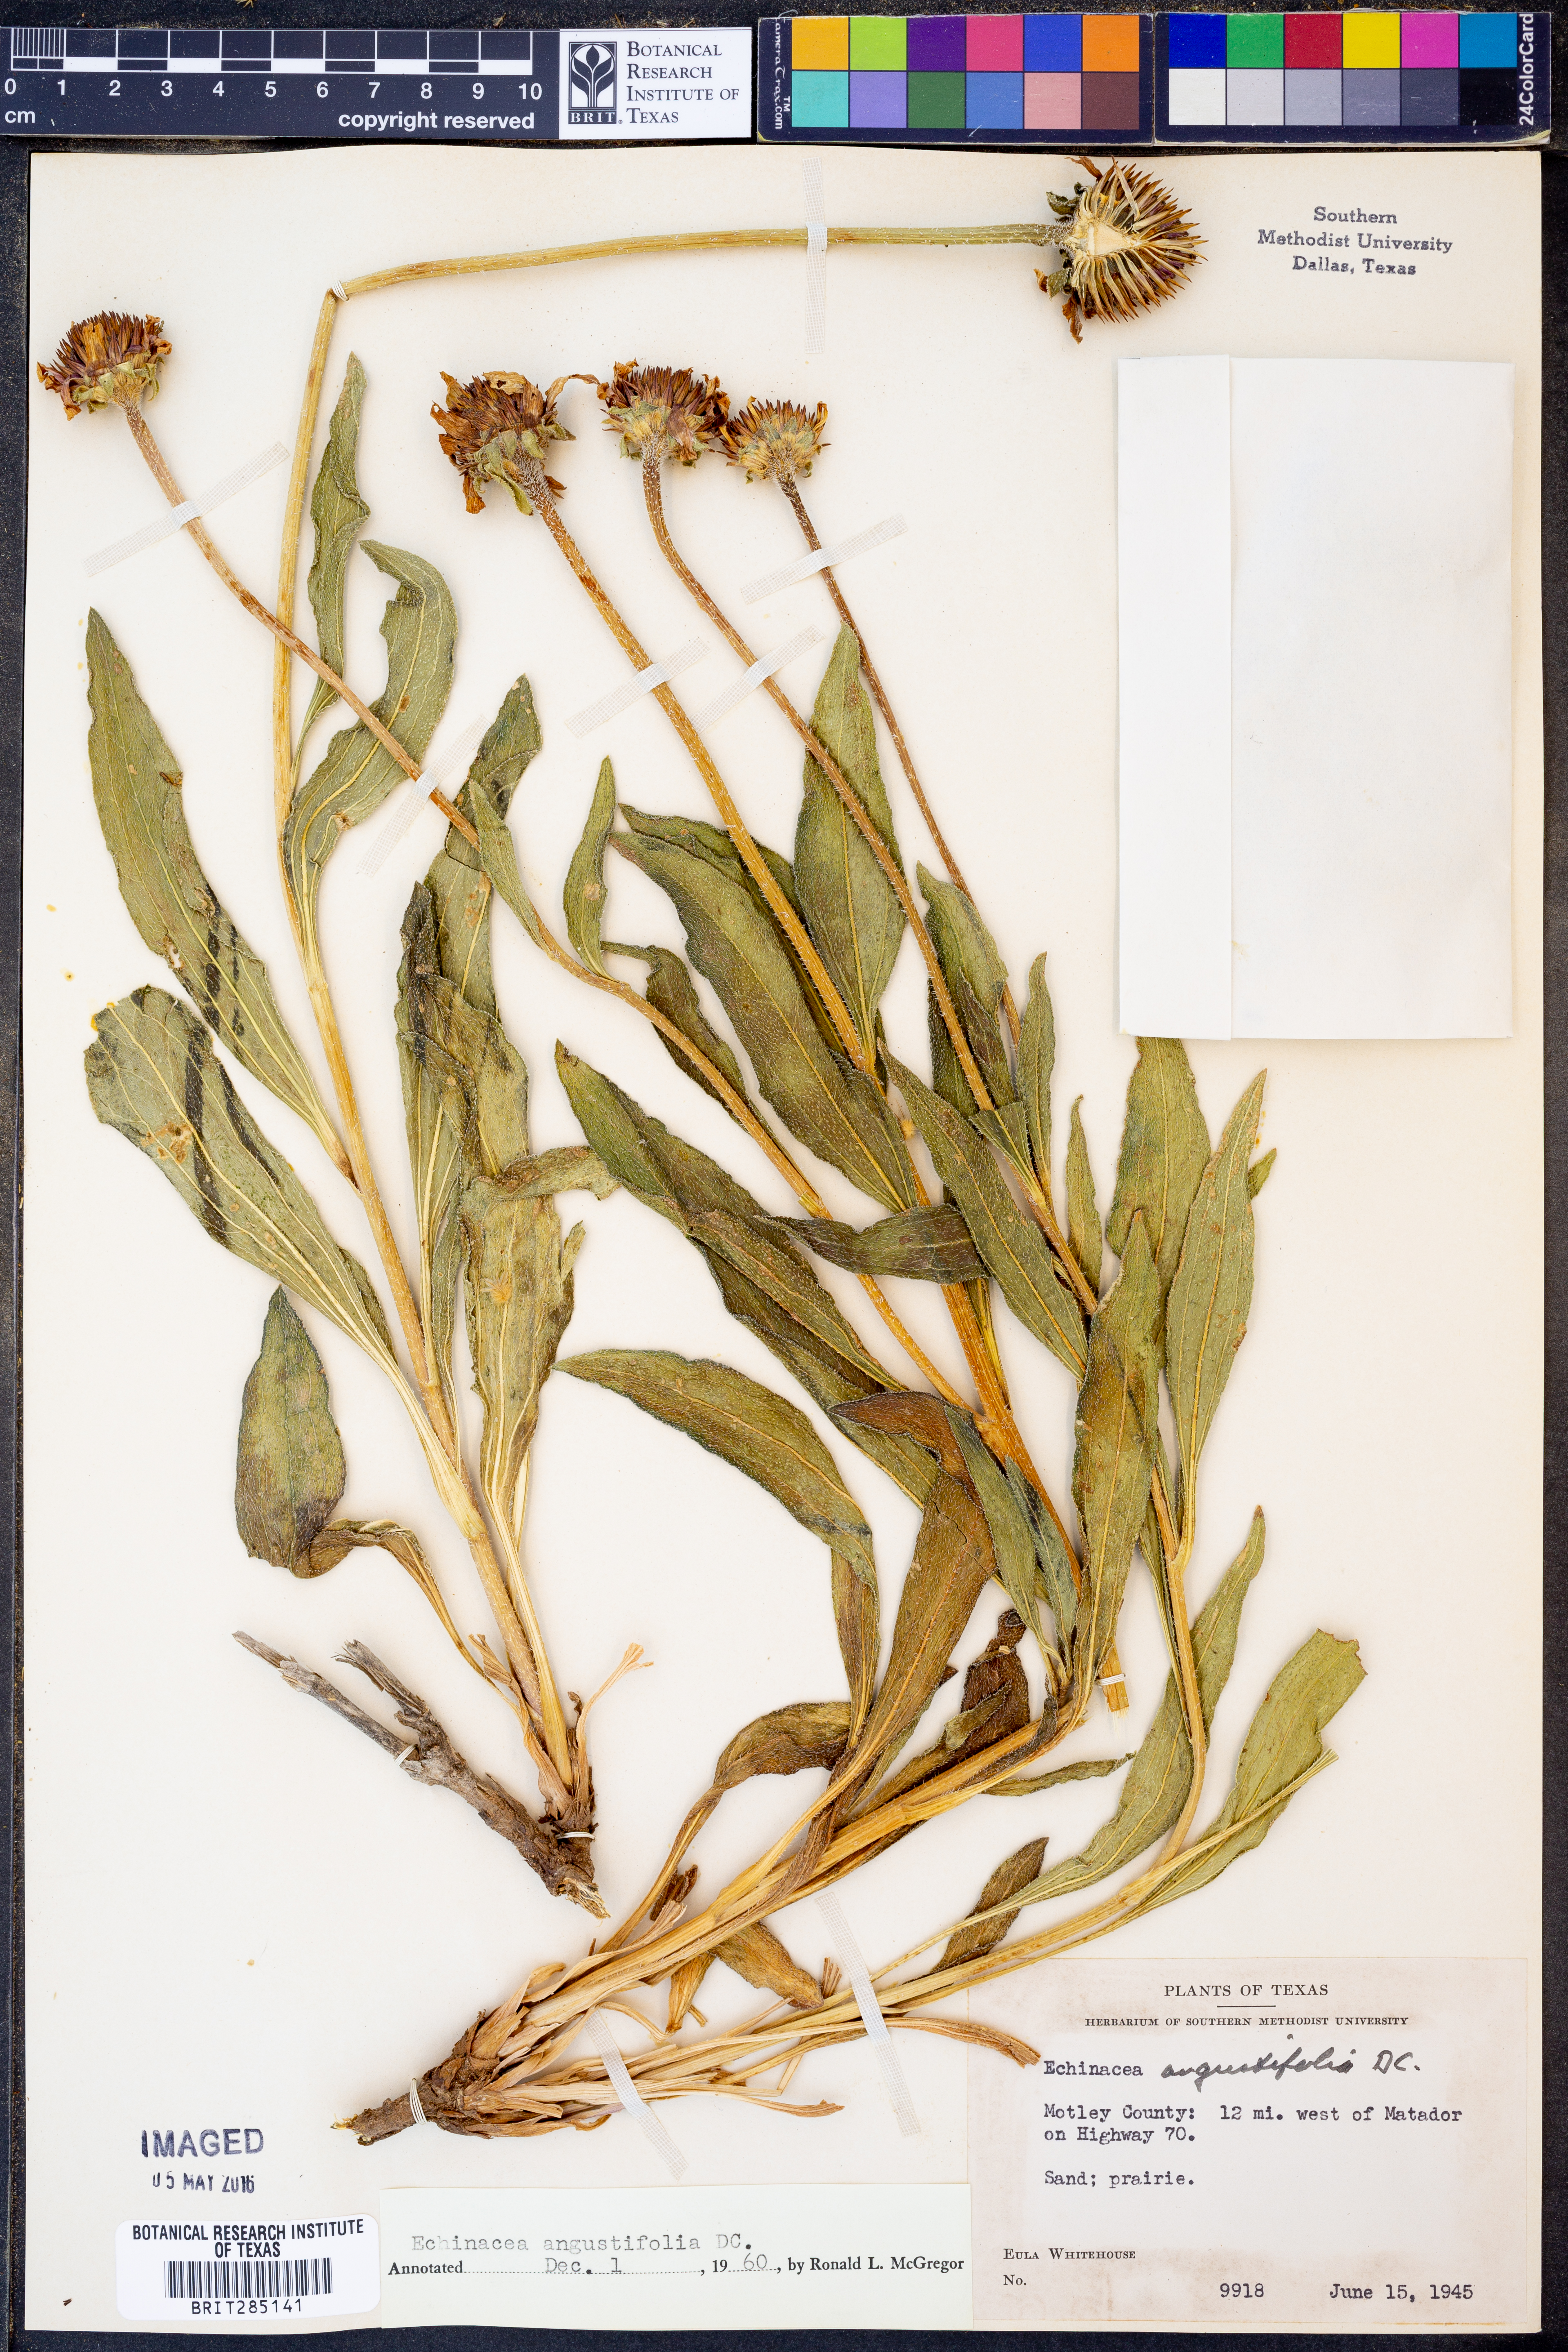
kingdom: Plantae
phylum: Tracheophyta
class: Magnoliopsida
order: Asterales
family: Asteraceae
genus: Echinacea
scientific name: Echinacea angustifolia
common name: Black-sampson echinacea
